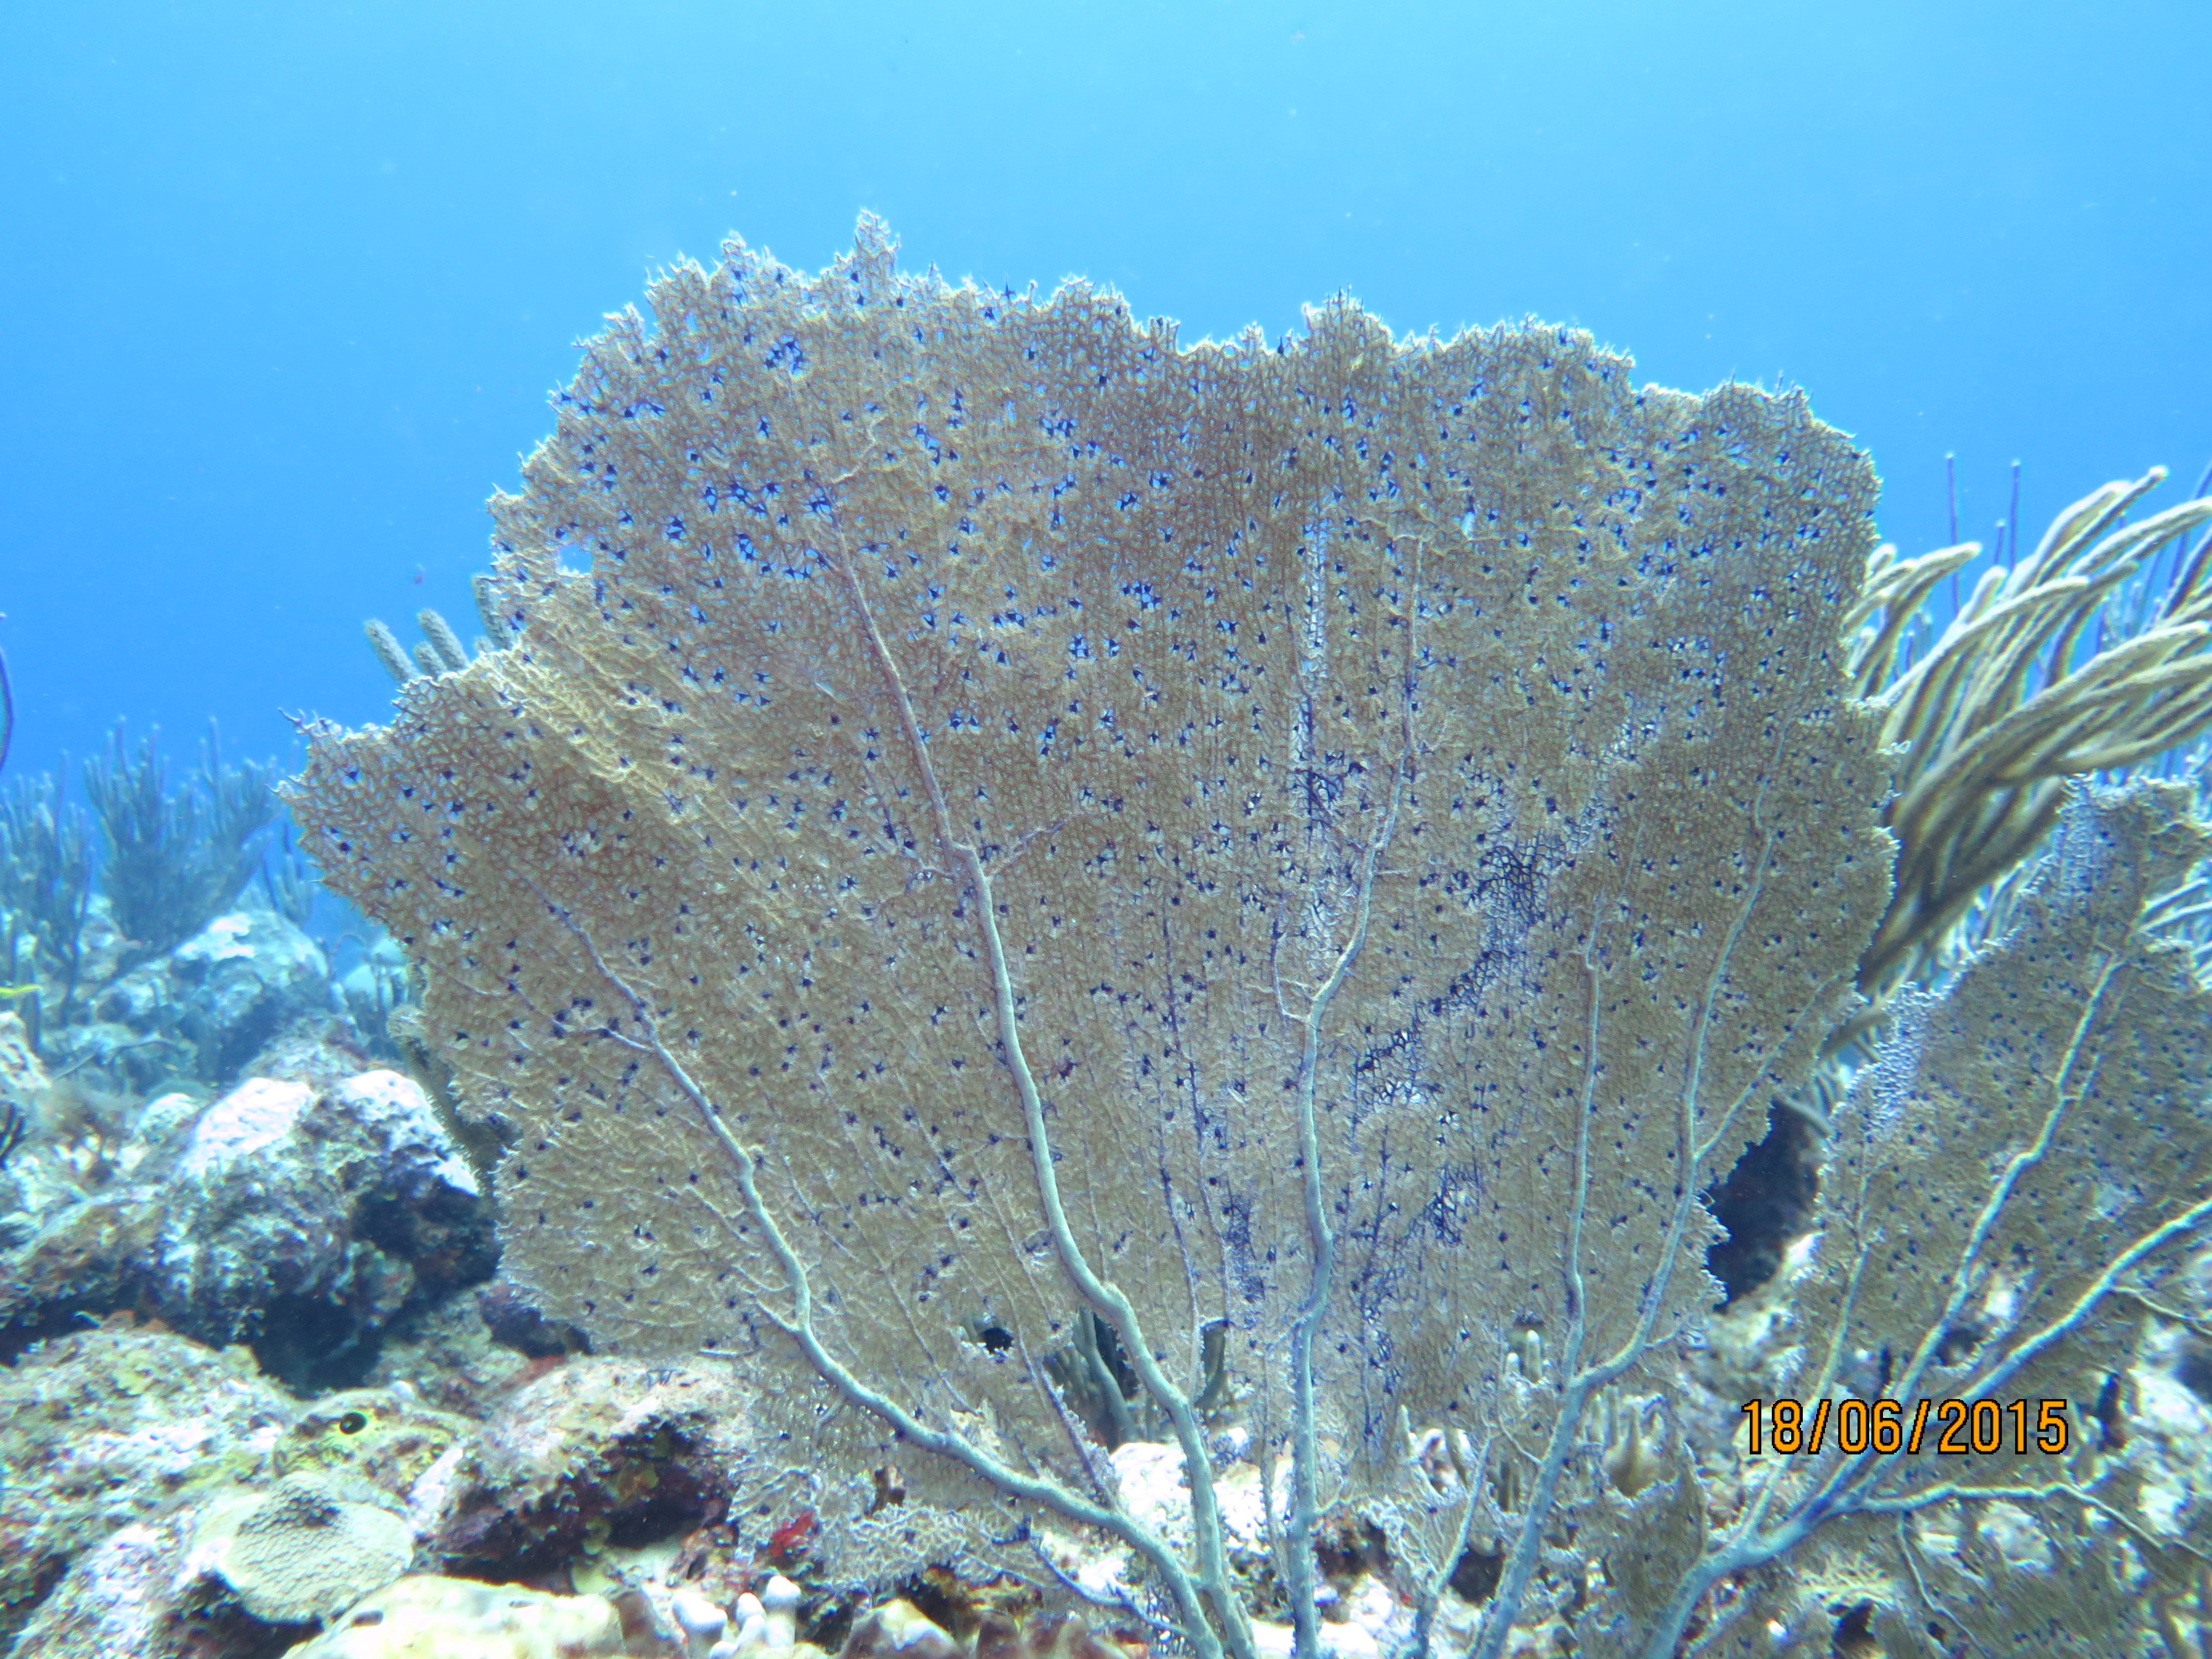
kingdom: Animalia
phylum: Cnidaria
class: Anthozoa
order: Malacalcyonacea
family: Gorgoniidae
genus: Gorgonia
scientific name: Gorgonia ventalina
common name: Common sea fan
